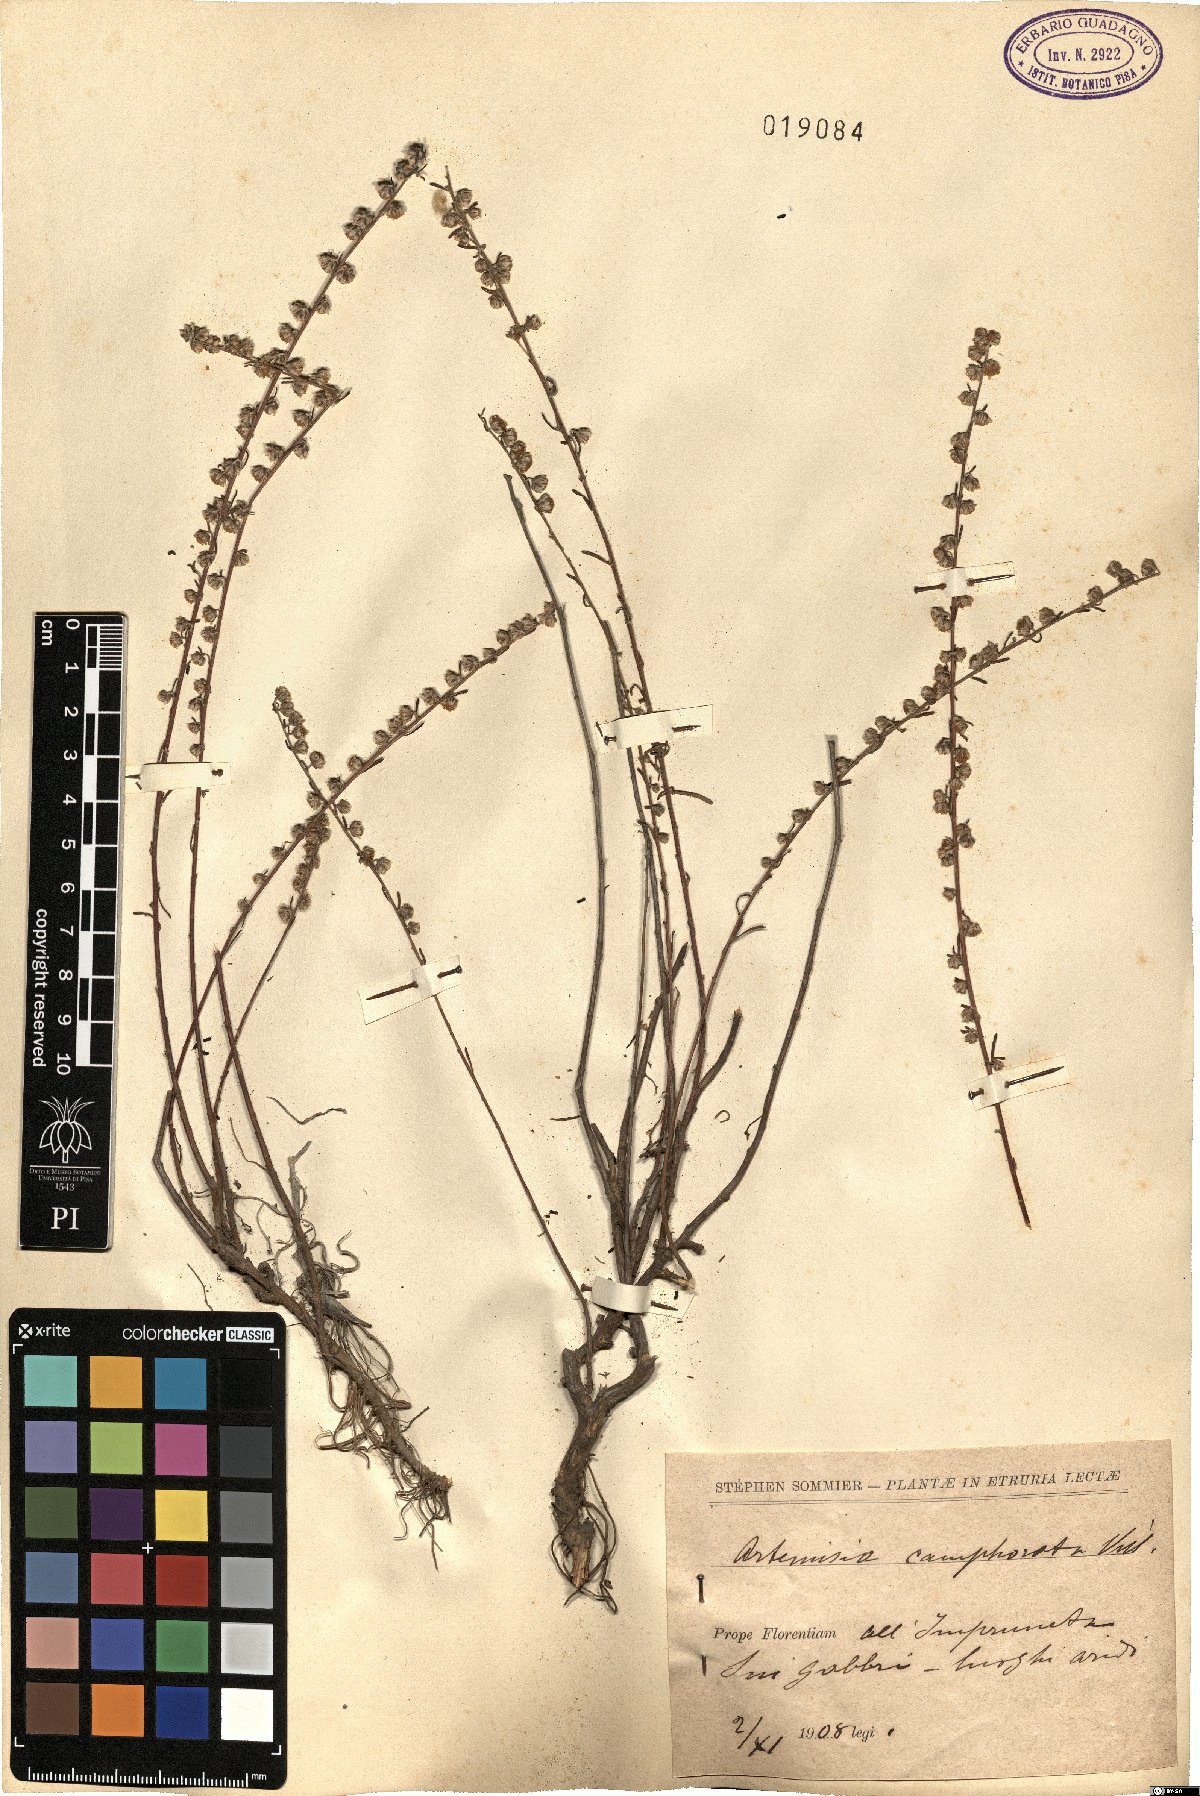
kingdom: Plantae
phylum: Tracheophyta
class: Magnoliopsida
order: Asterales
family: Asteraceae
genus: Artemisia
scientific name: Artemisia alba
